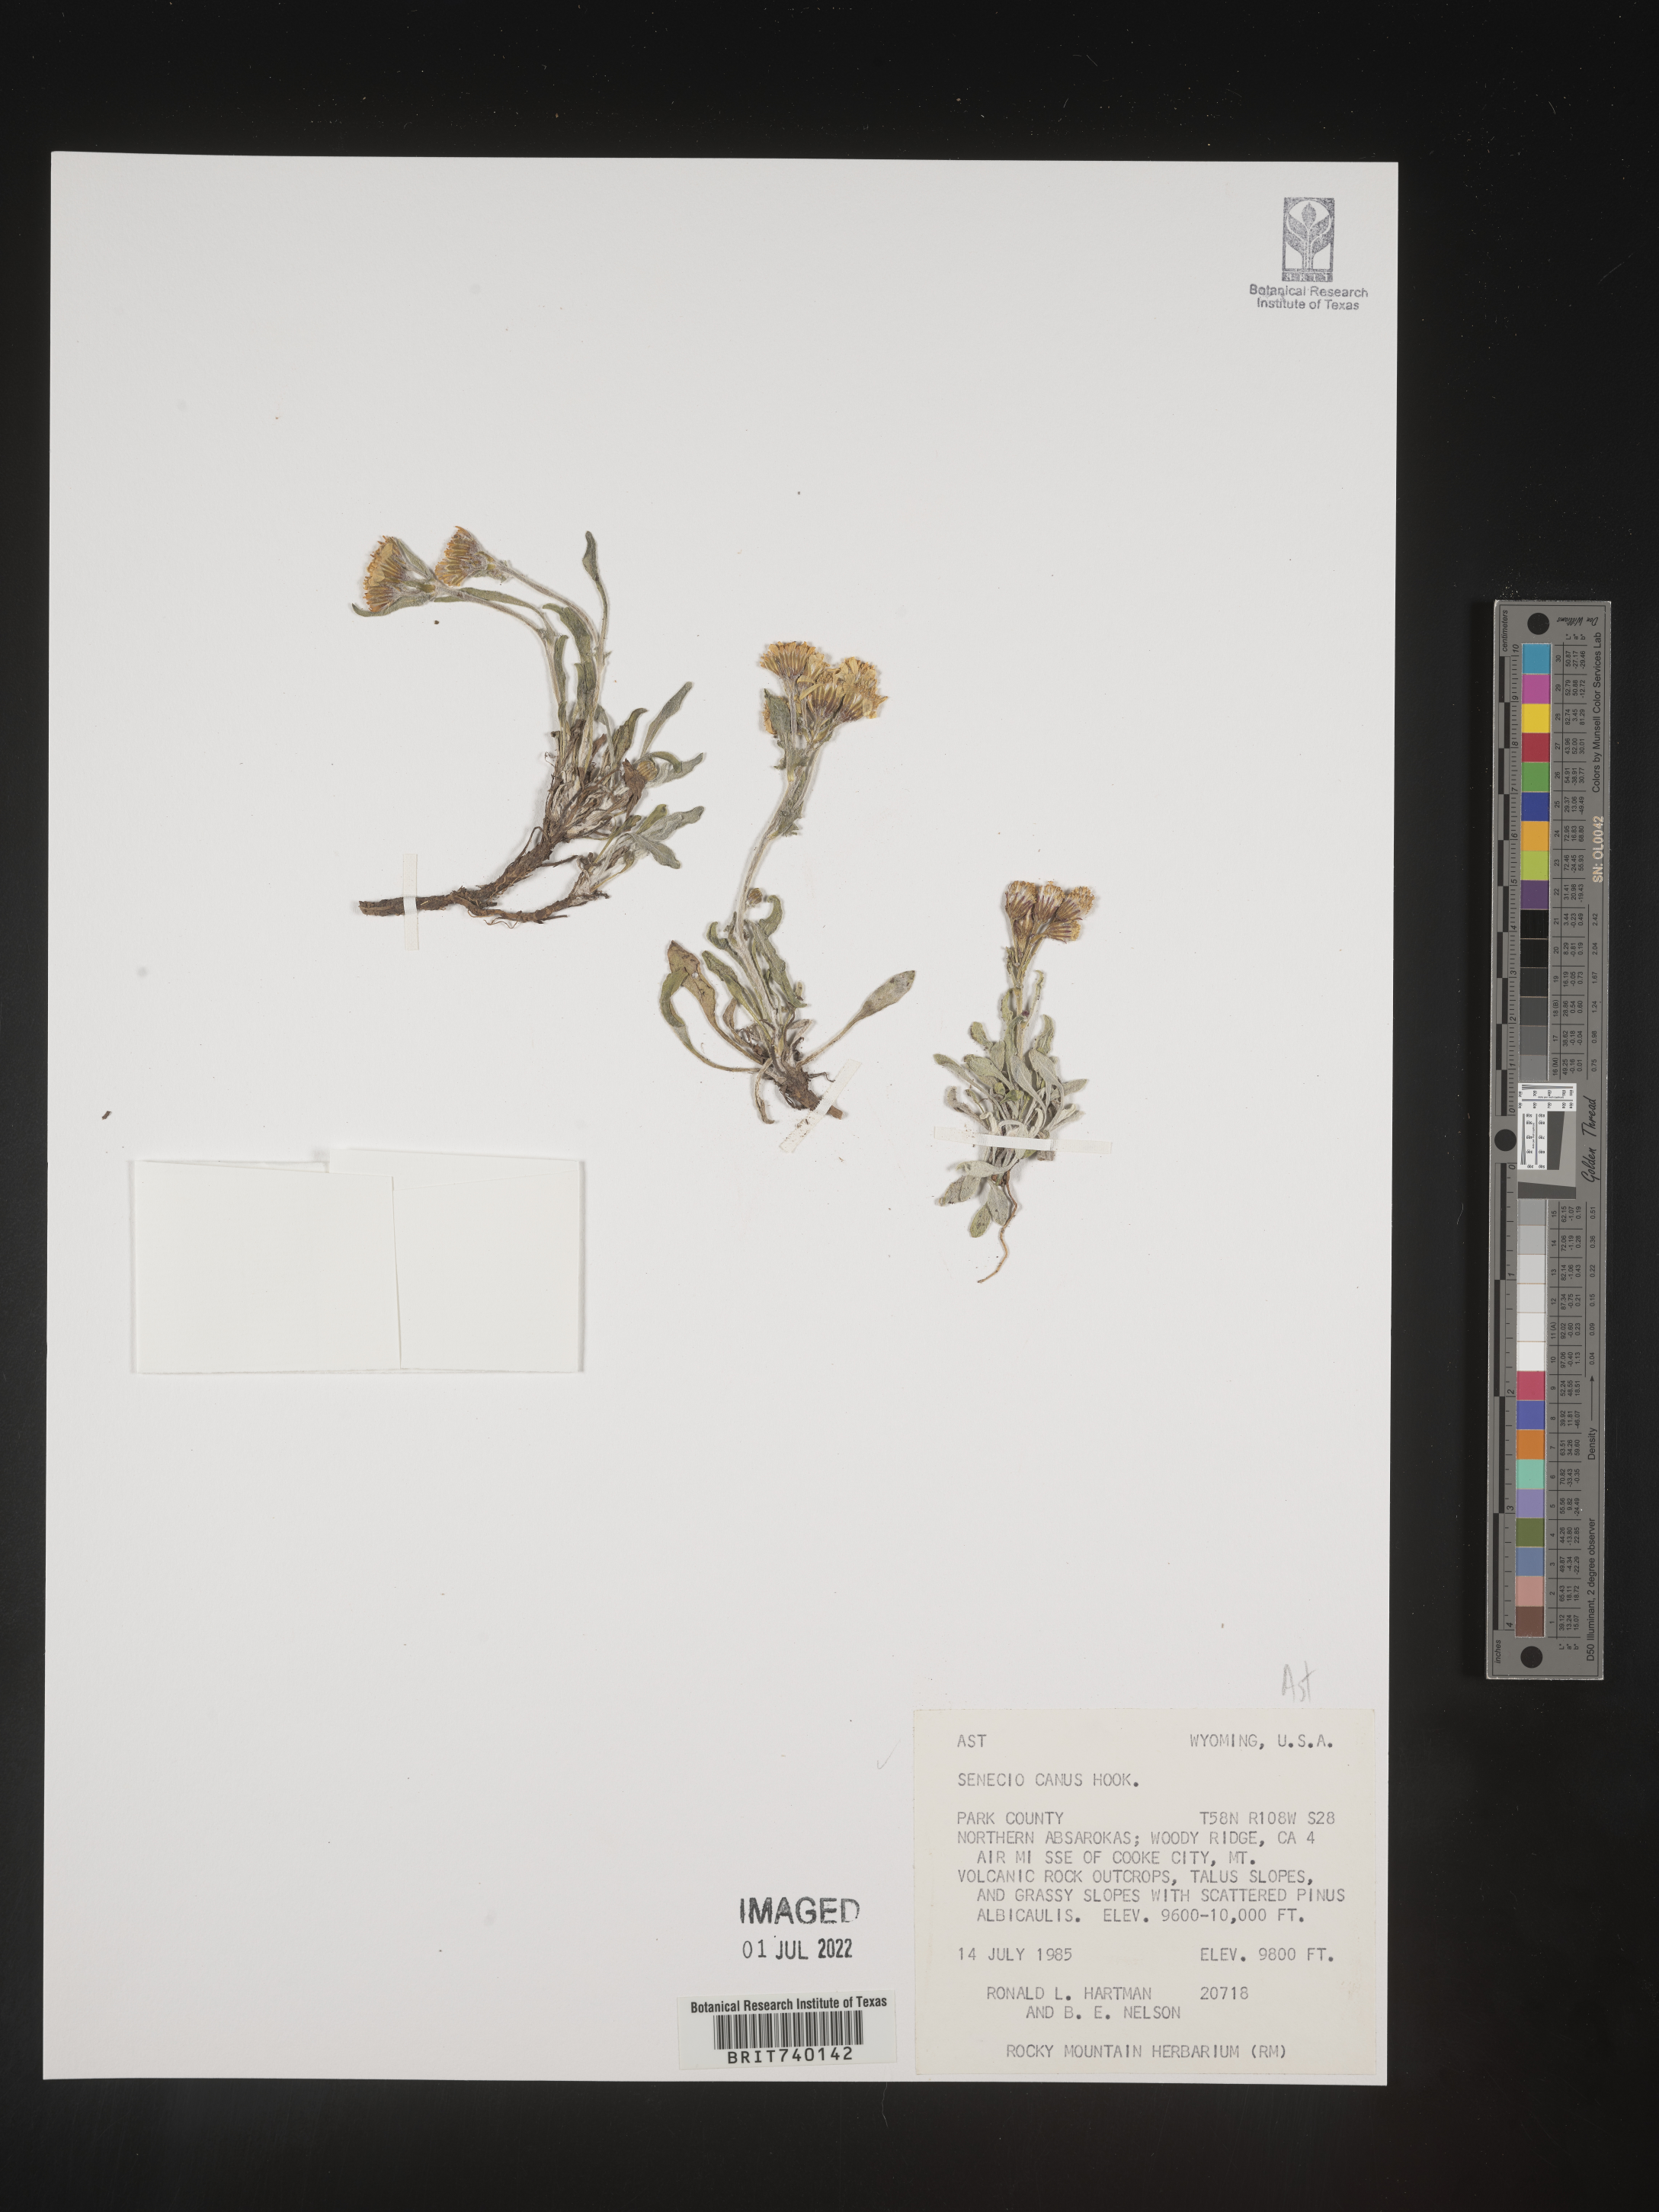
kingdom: Plantae
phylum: Tracheophyta
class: Magnoliopsida
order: Asterales
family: Asteraceae
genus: Packera
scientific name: Packera cana
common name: Woolly groundsel
